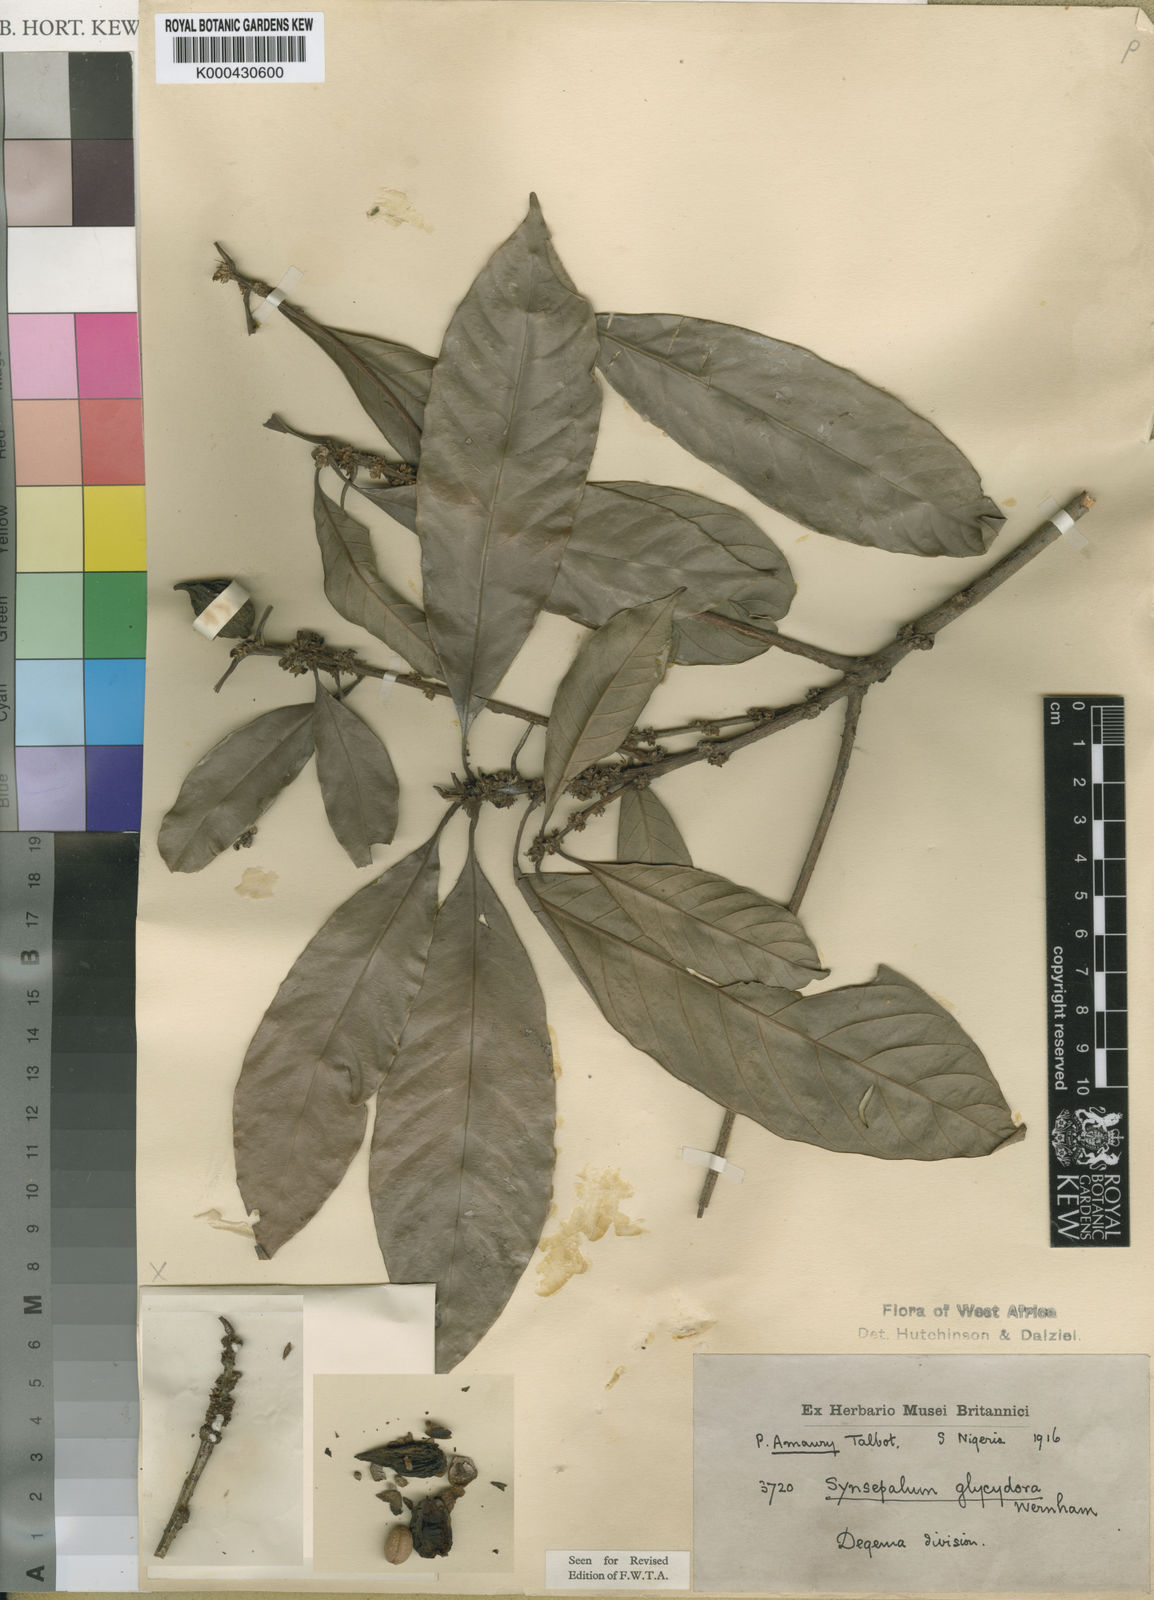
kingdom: Plantae
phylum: Tracheophyta
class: Magnoliopsida
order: Ericales
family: Sapotaceae
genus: Synsepalum
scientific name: Synsepalum dulcificum
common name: Miracle-fruit
